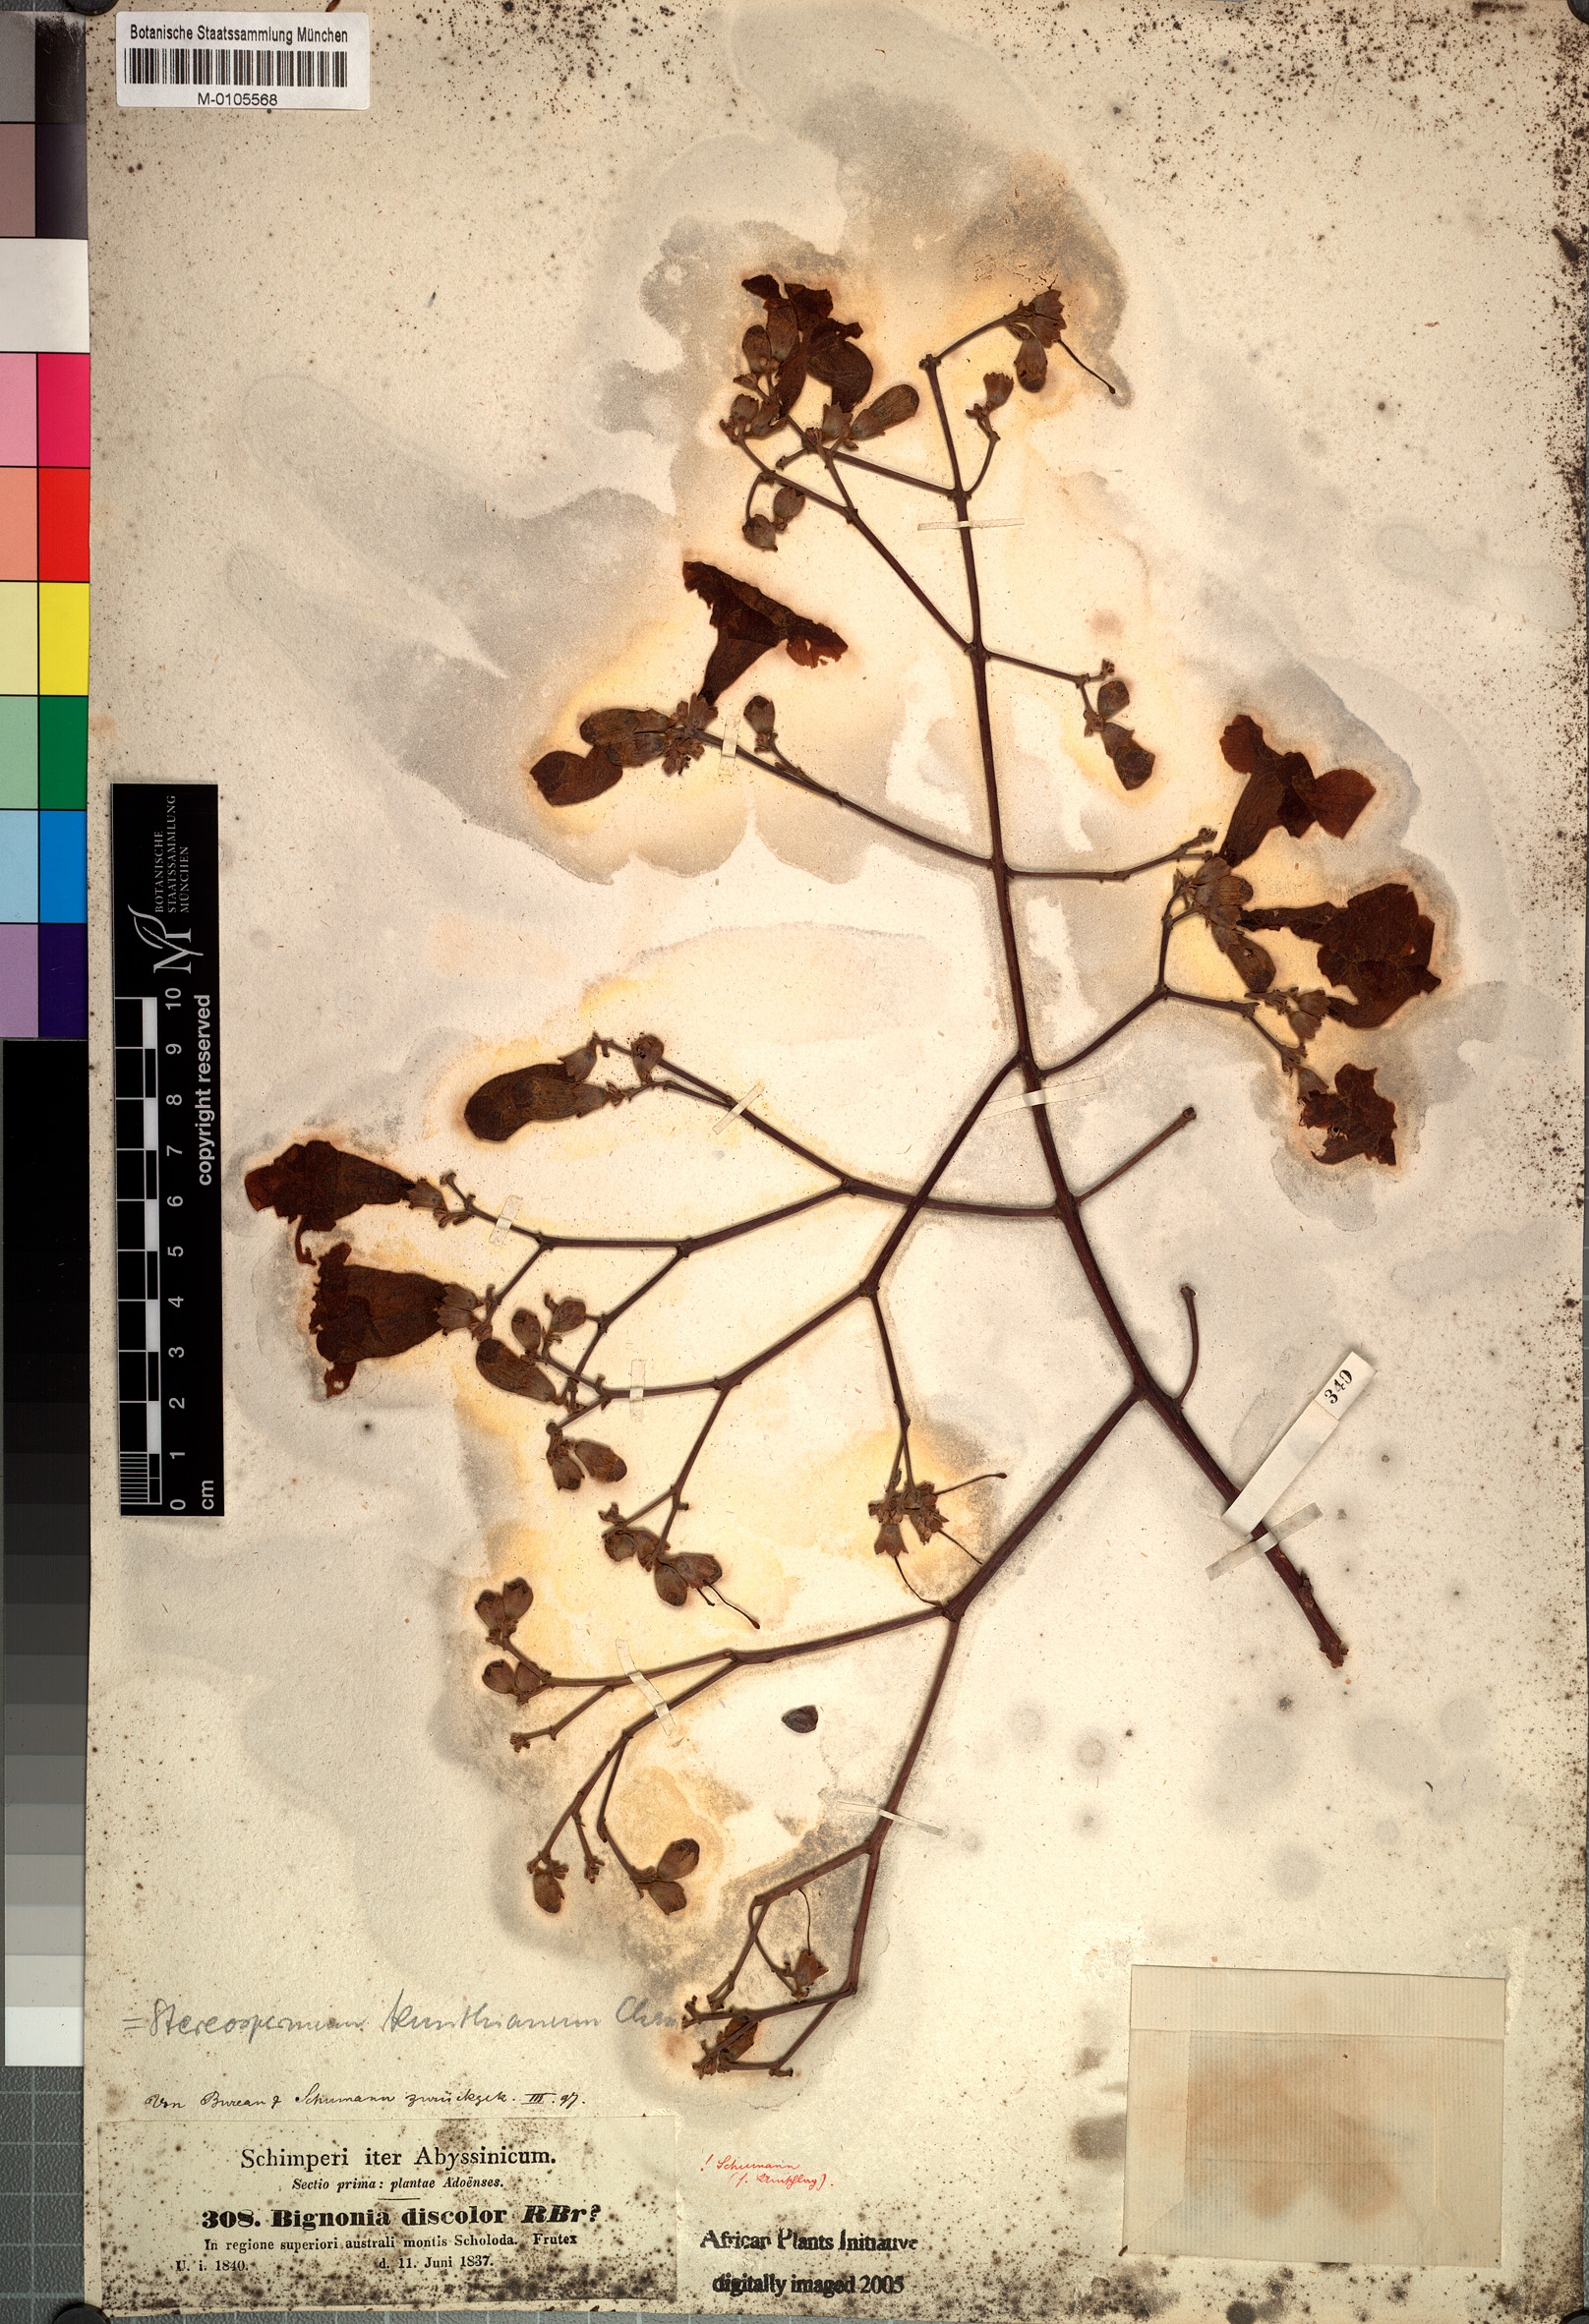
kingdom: Plantae
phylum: Tracheophyta
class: Magnoliopsida
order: Lamiales
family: Bignoniaceae
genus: Stereospermum
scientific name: Stereospermum kunthianum
